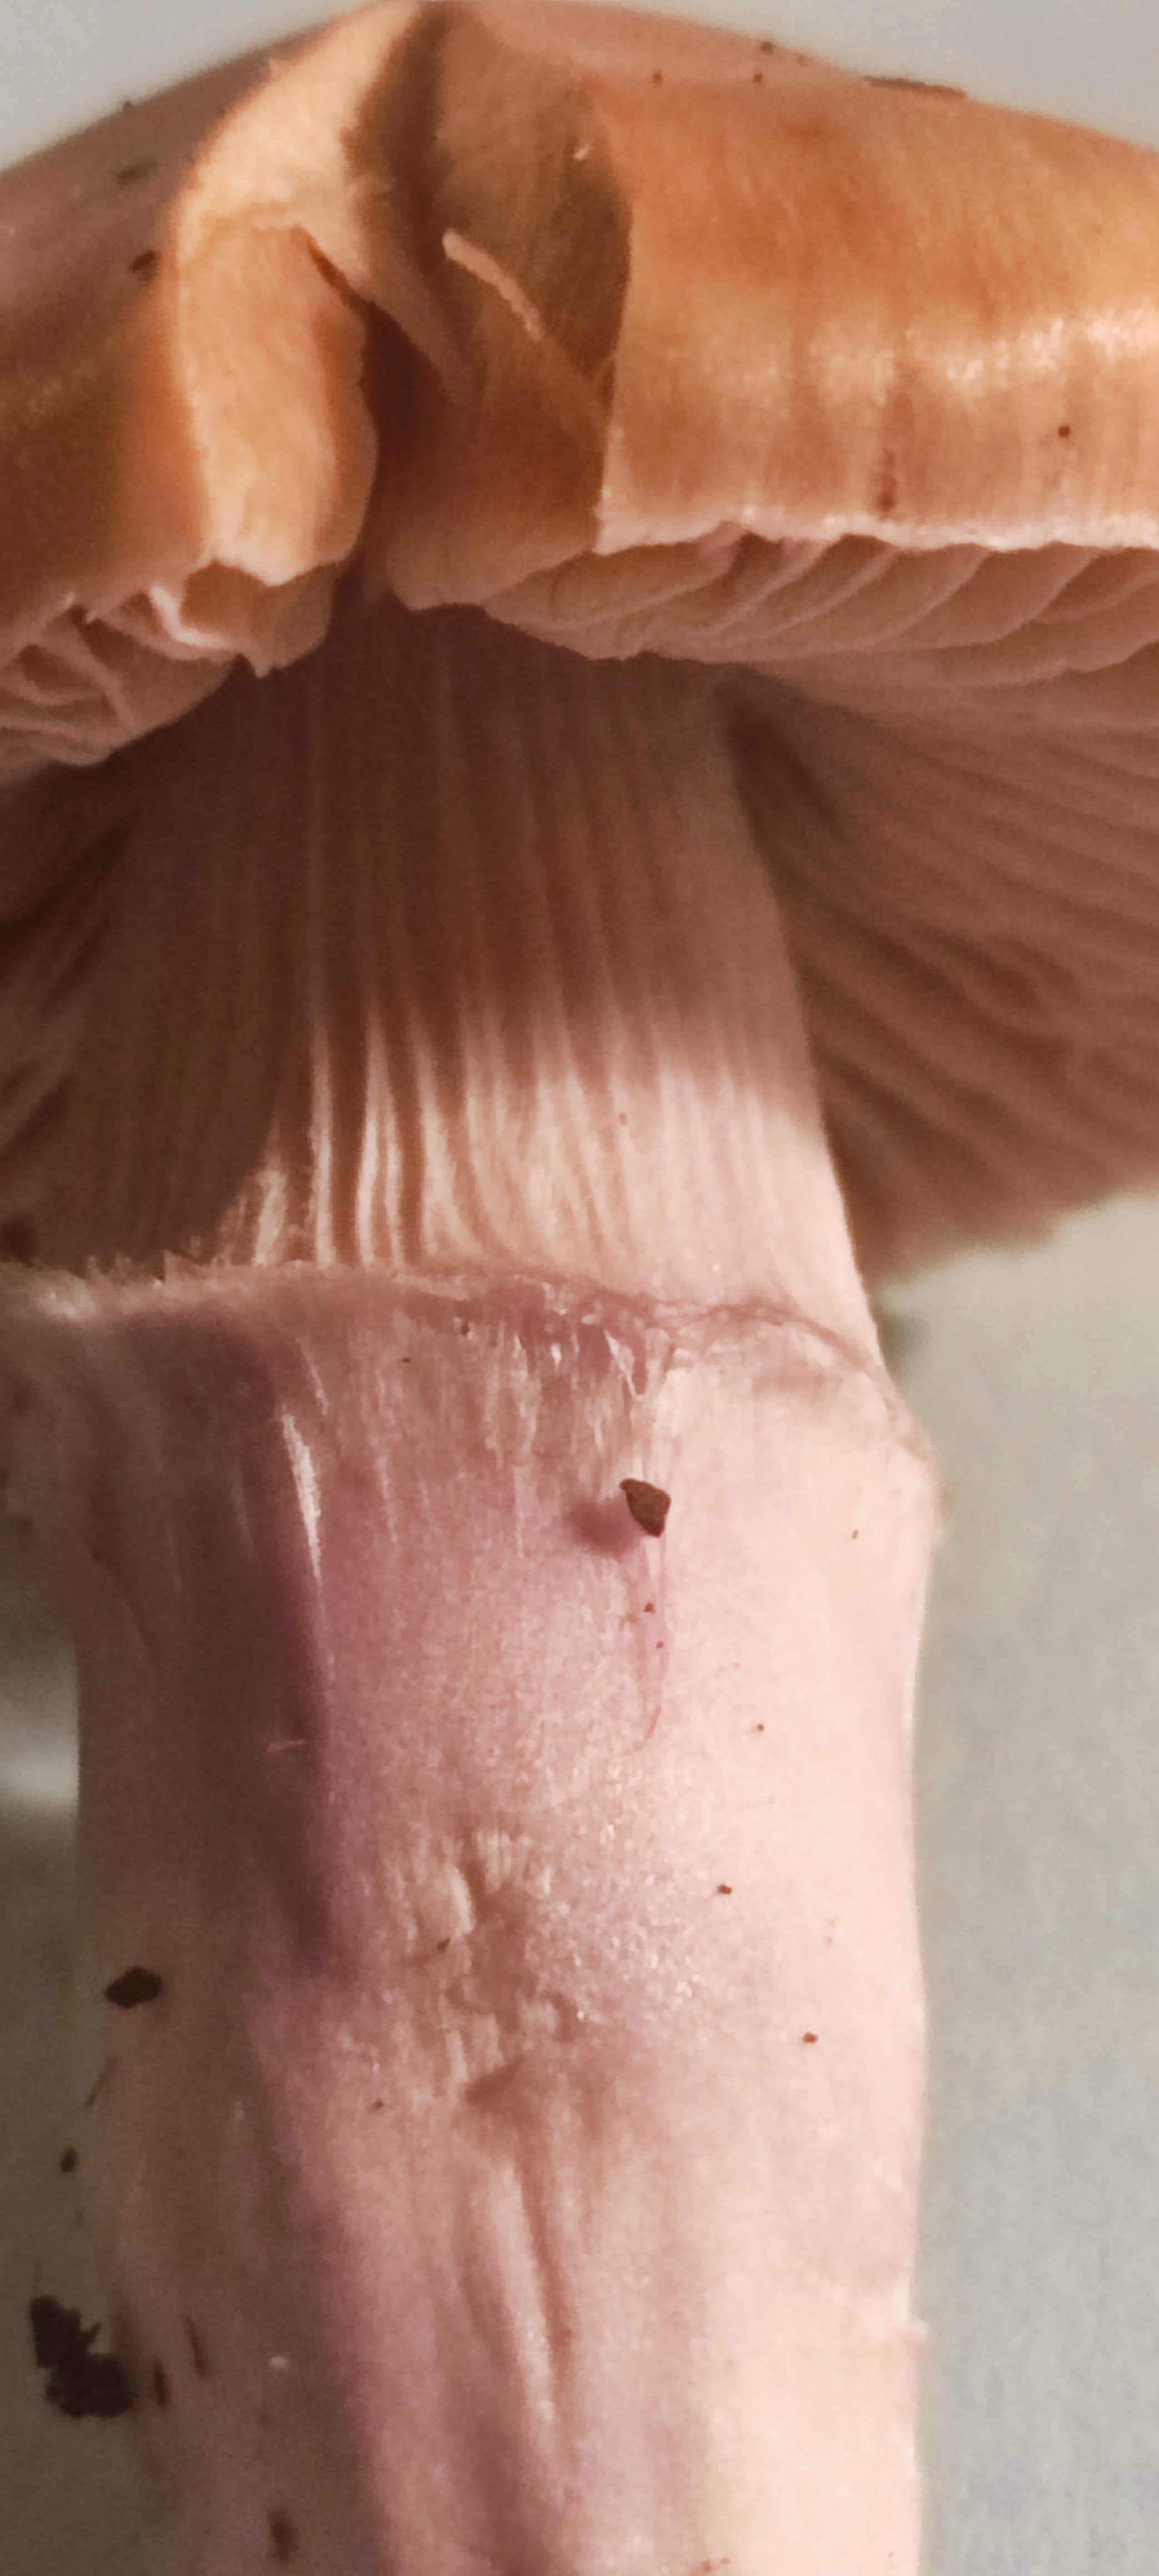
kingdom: Fungi
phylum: Basidiomycota
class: Agaricomycetes
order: Agaricales
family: Cortinariaceae
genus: Cortinarius
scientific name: Cortinarius elatior
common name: høj slørhat
